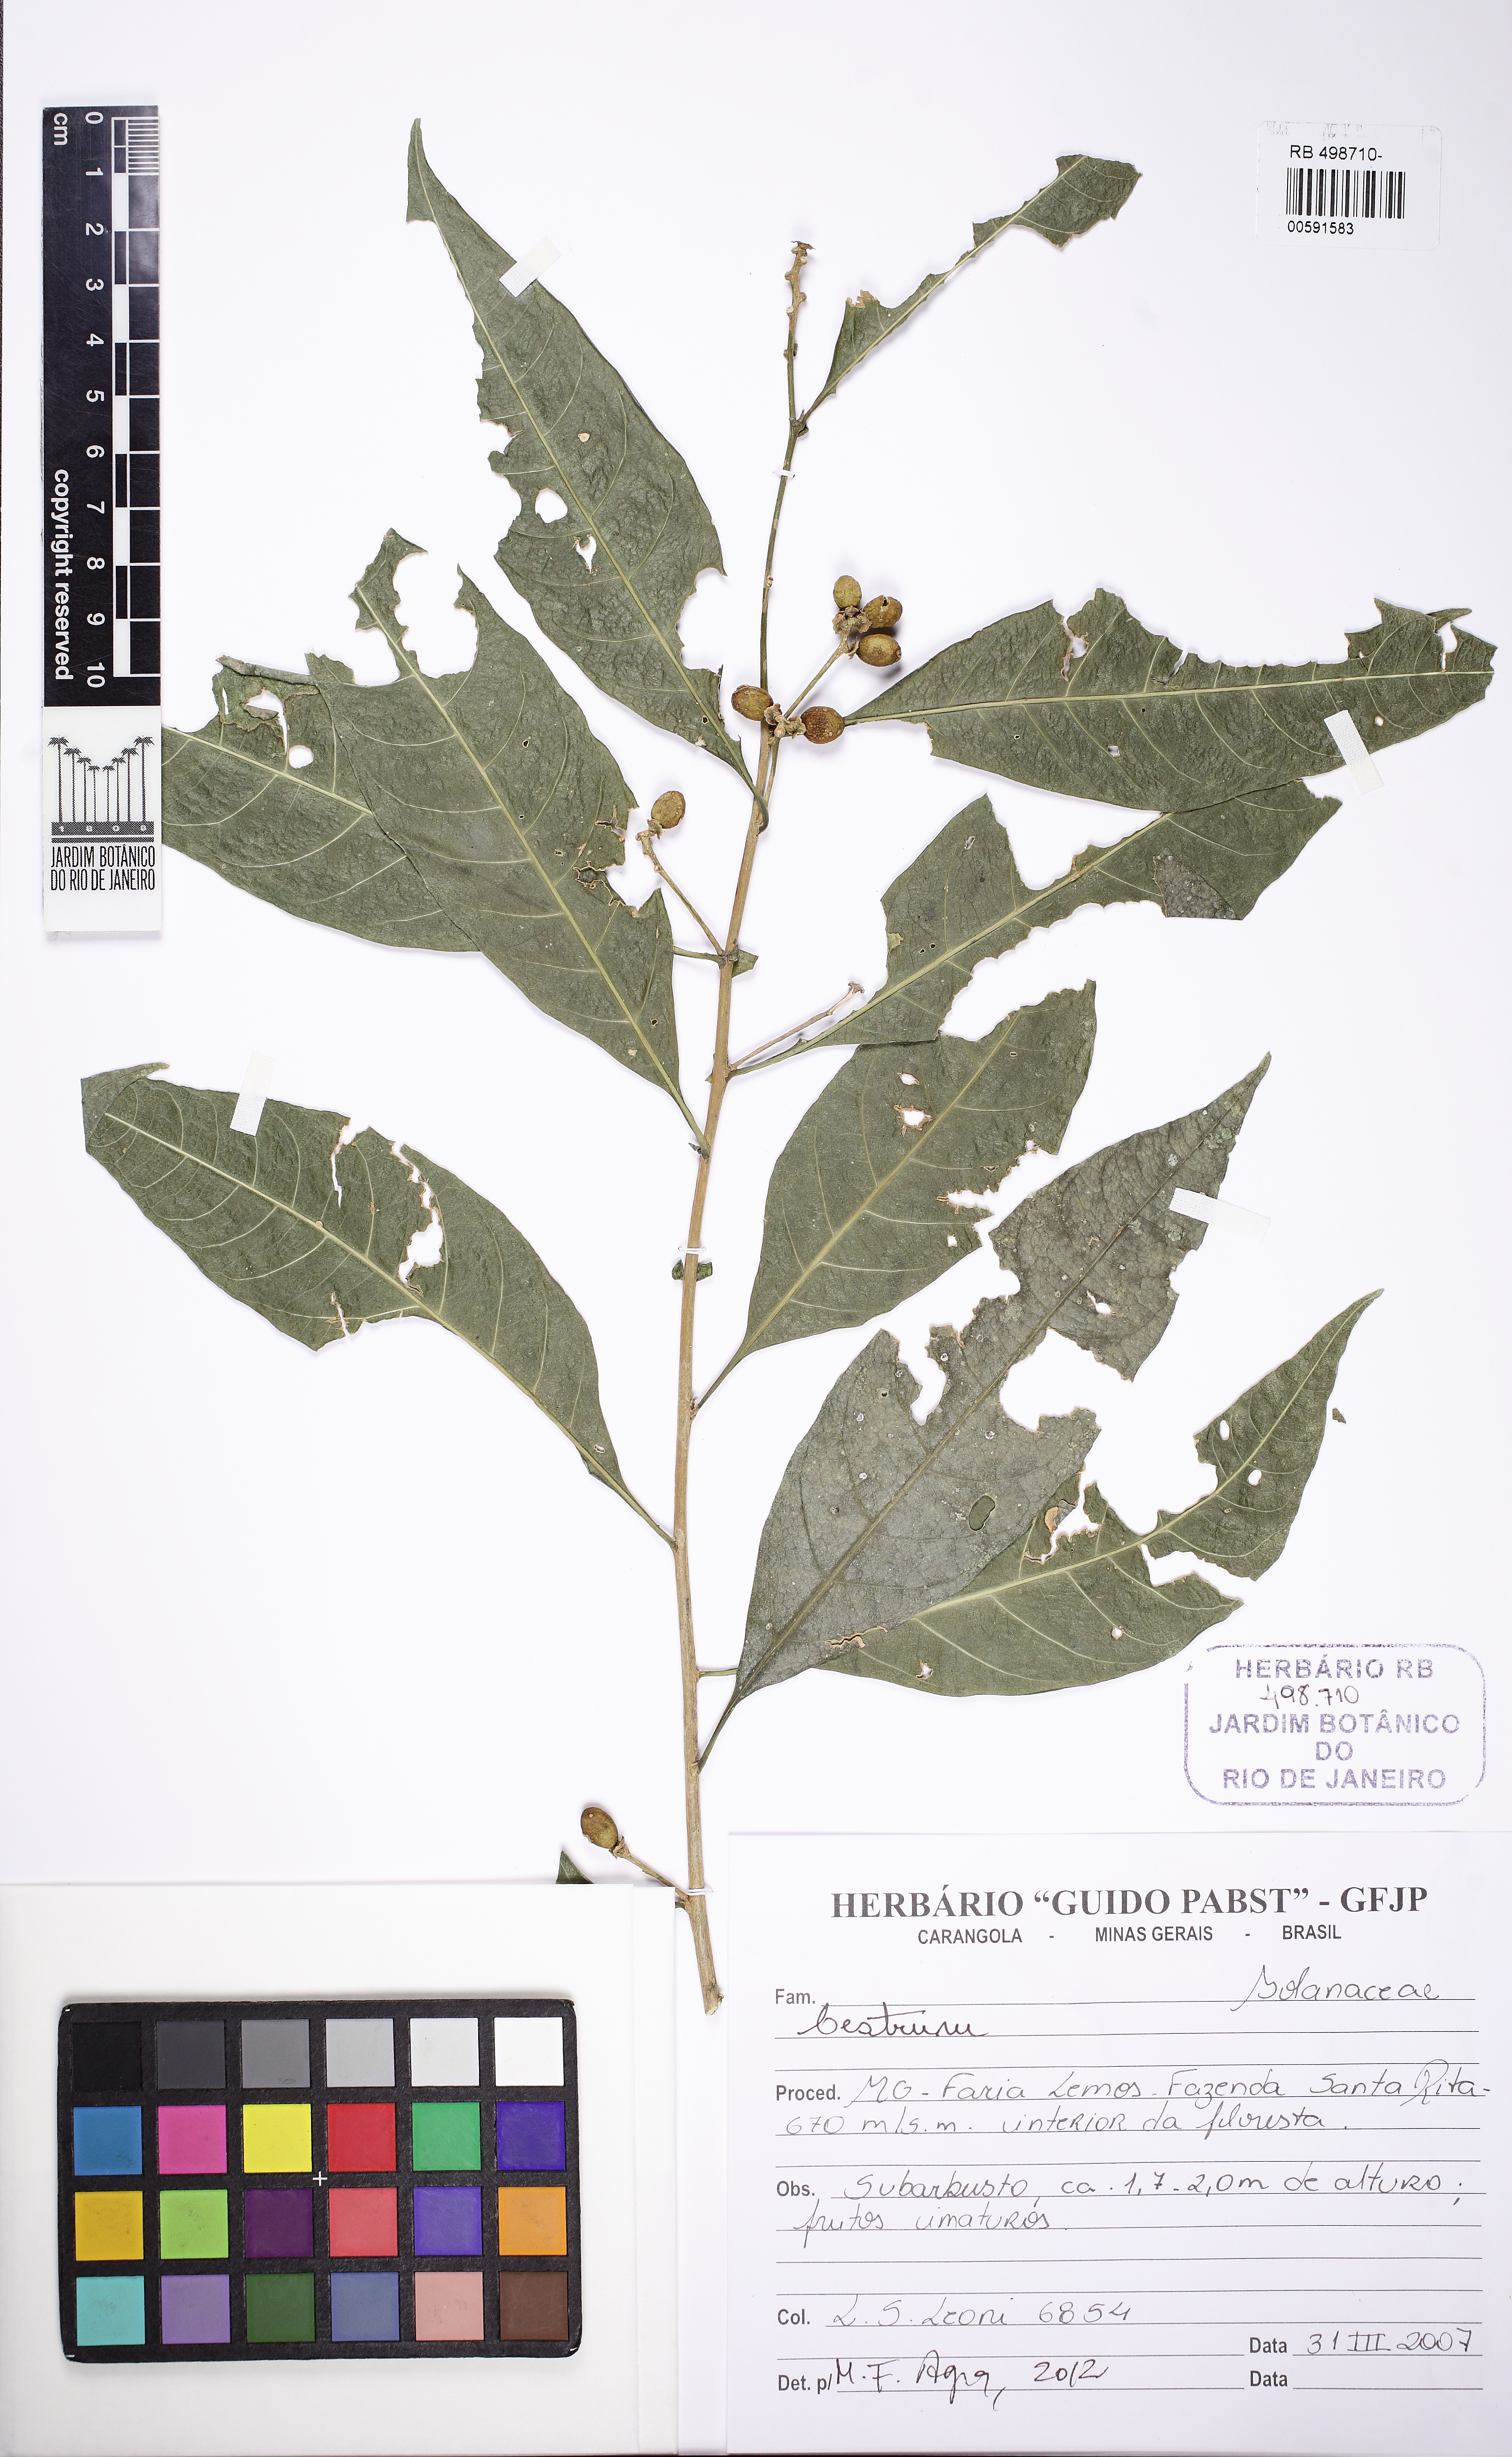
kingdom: Plantae
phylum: Tracheophyta
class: Magnoliopsida
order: Solanales
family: Solanaceae
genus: Cestrum
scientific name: Cestrum
